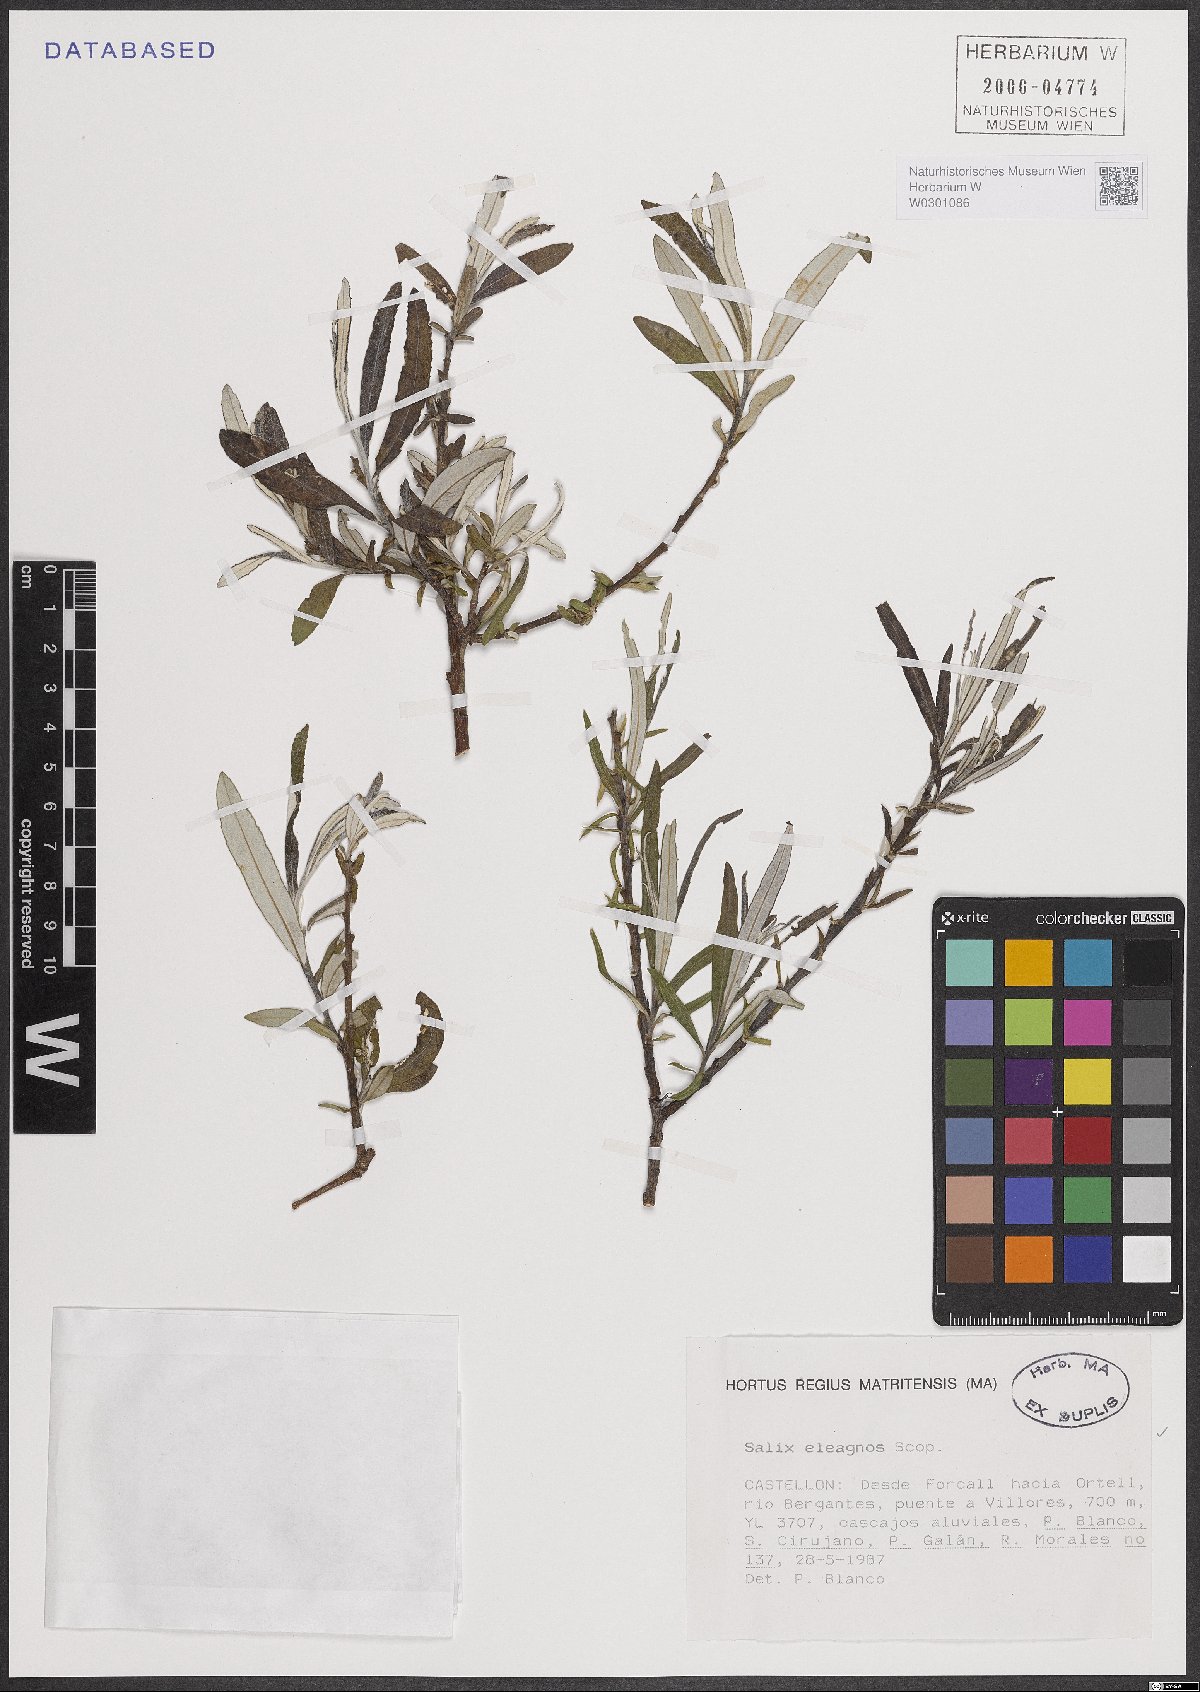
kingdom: Plantae
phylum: Tracheophyta
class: Magnoliopsida
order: Malpighiales
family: Salicaceae
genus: Salix
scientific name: Salix eleagnos
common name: Elaeagnus willow
